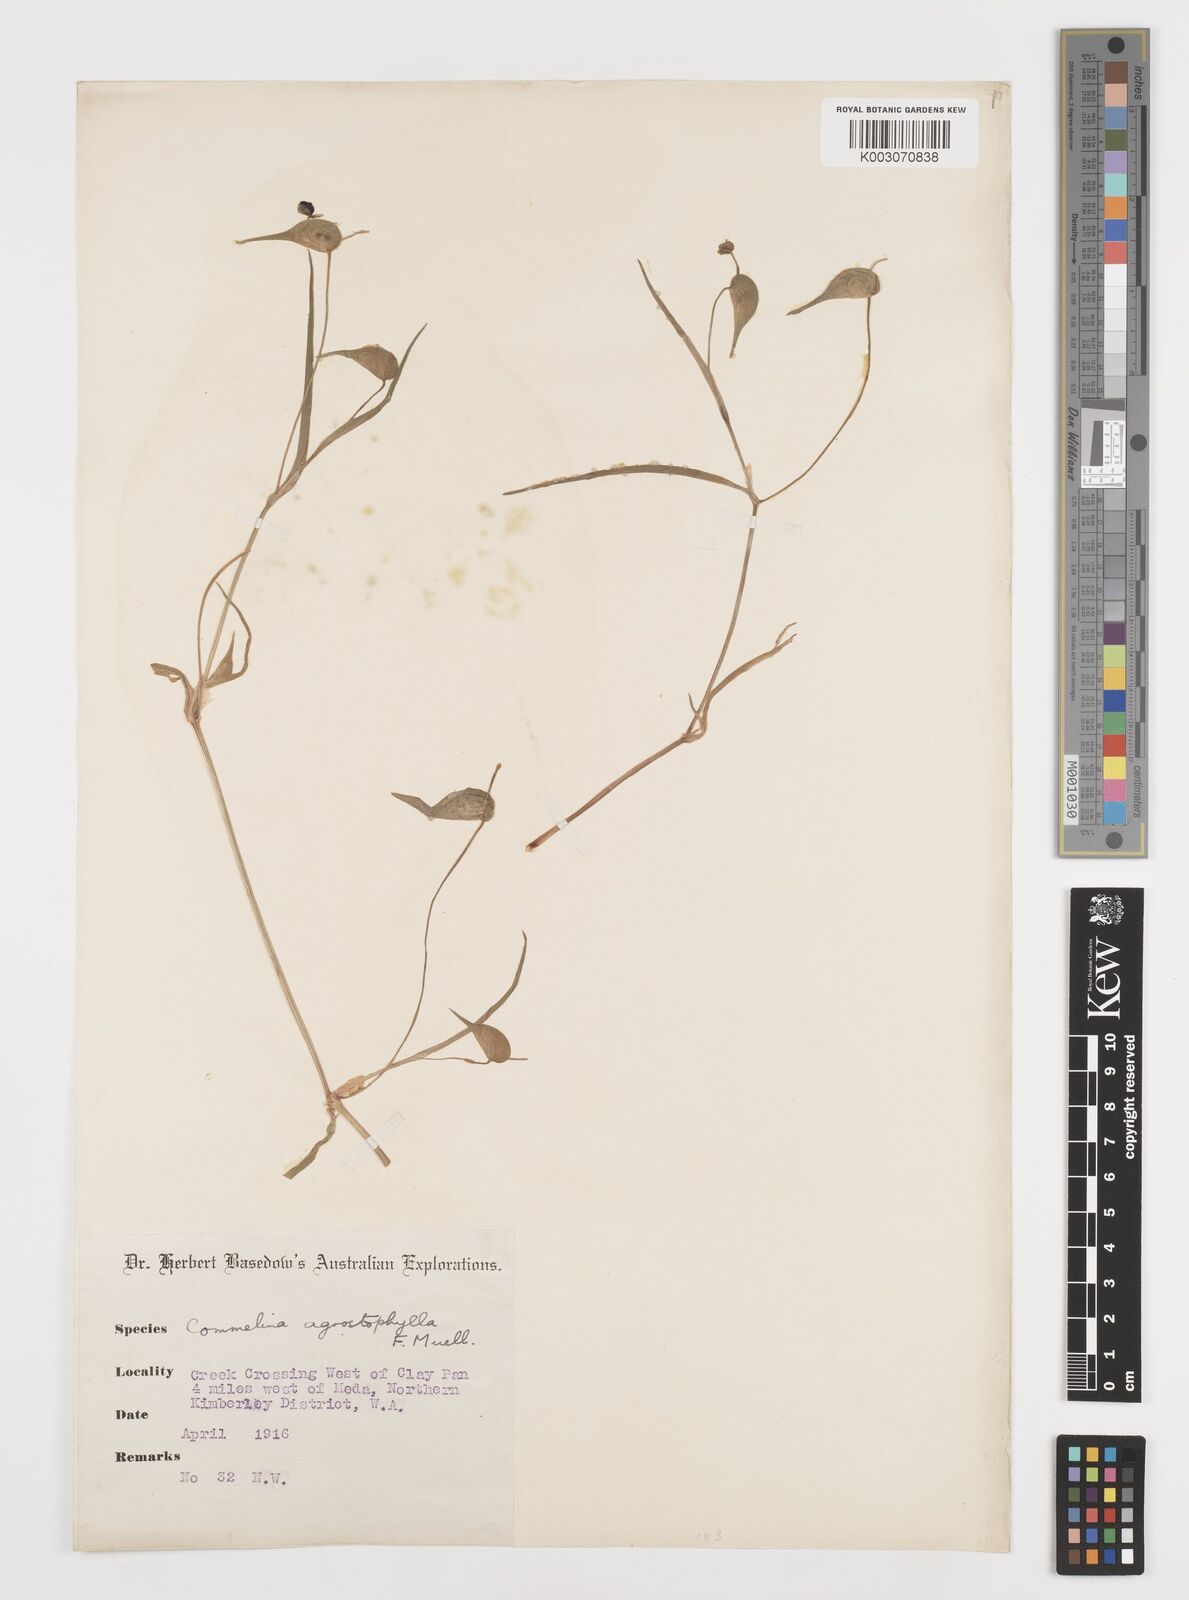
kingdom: Plantae
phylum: Tracheophyta
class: Liliopsida
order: Commelinales
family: Commelinaceae
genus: Commelina
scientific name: Commelina agrostophylla
